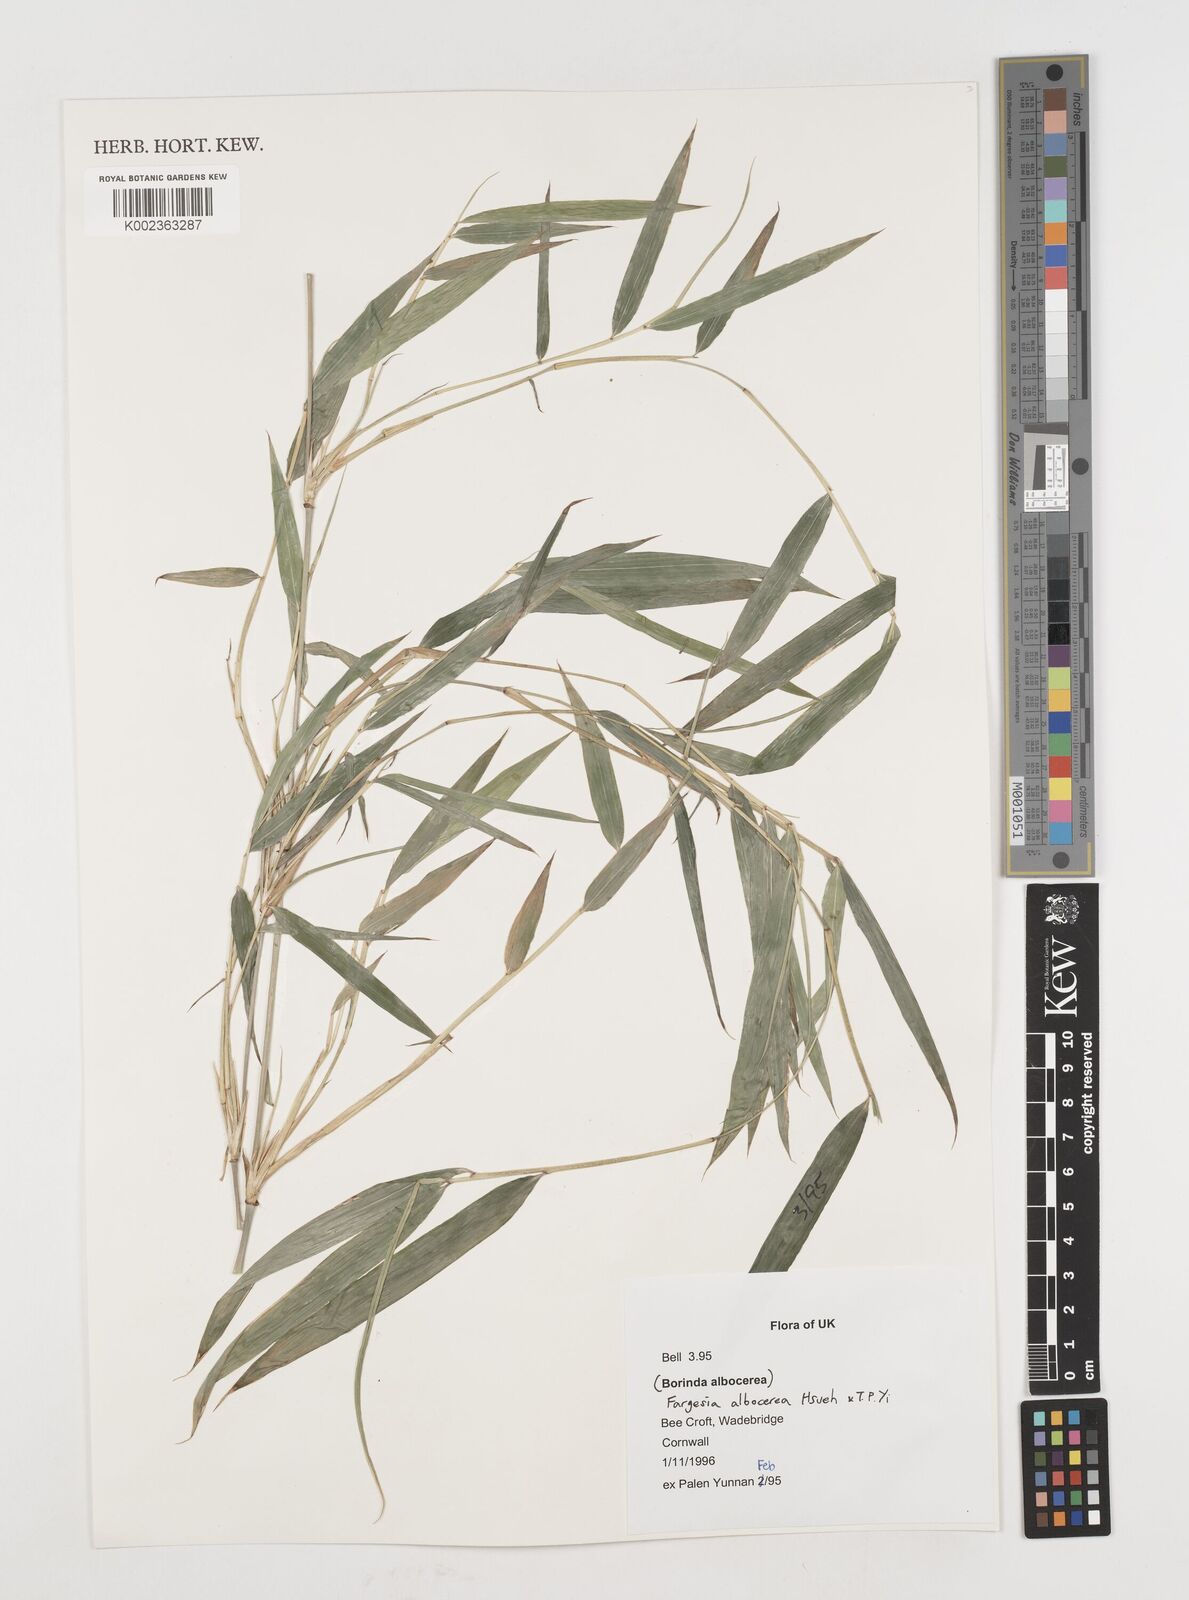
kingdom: Plantae
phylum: Tracheophyta
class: Liliopsida
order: Poales
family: Poaceae
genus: Borinda
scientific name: Borinda albocerea
